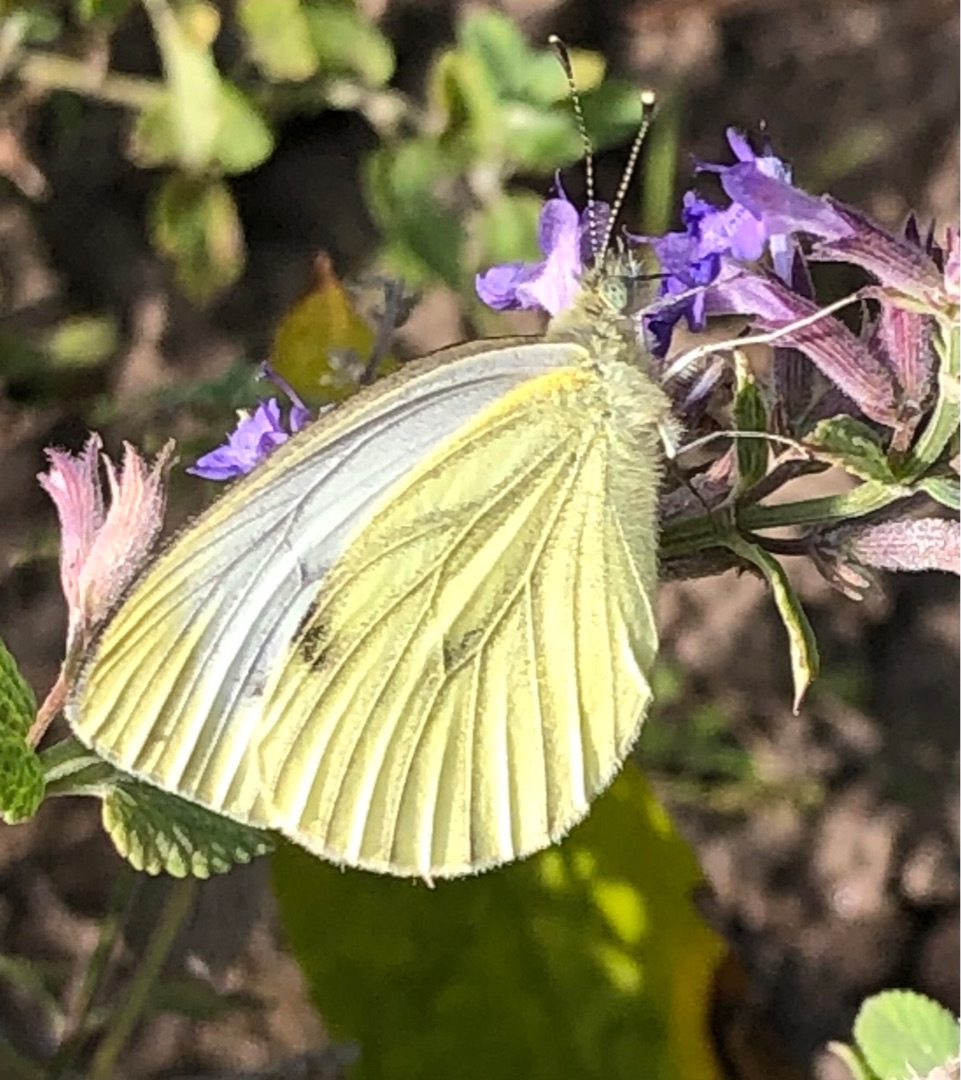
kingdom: Animalia
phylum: Arthropoda
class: Insecta
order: Lepidoptera
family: Pieridae
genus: Pieris
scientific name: Pieris napi
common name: Grønåret kålsommerfugl
